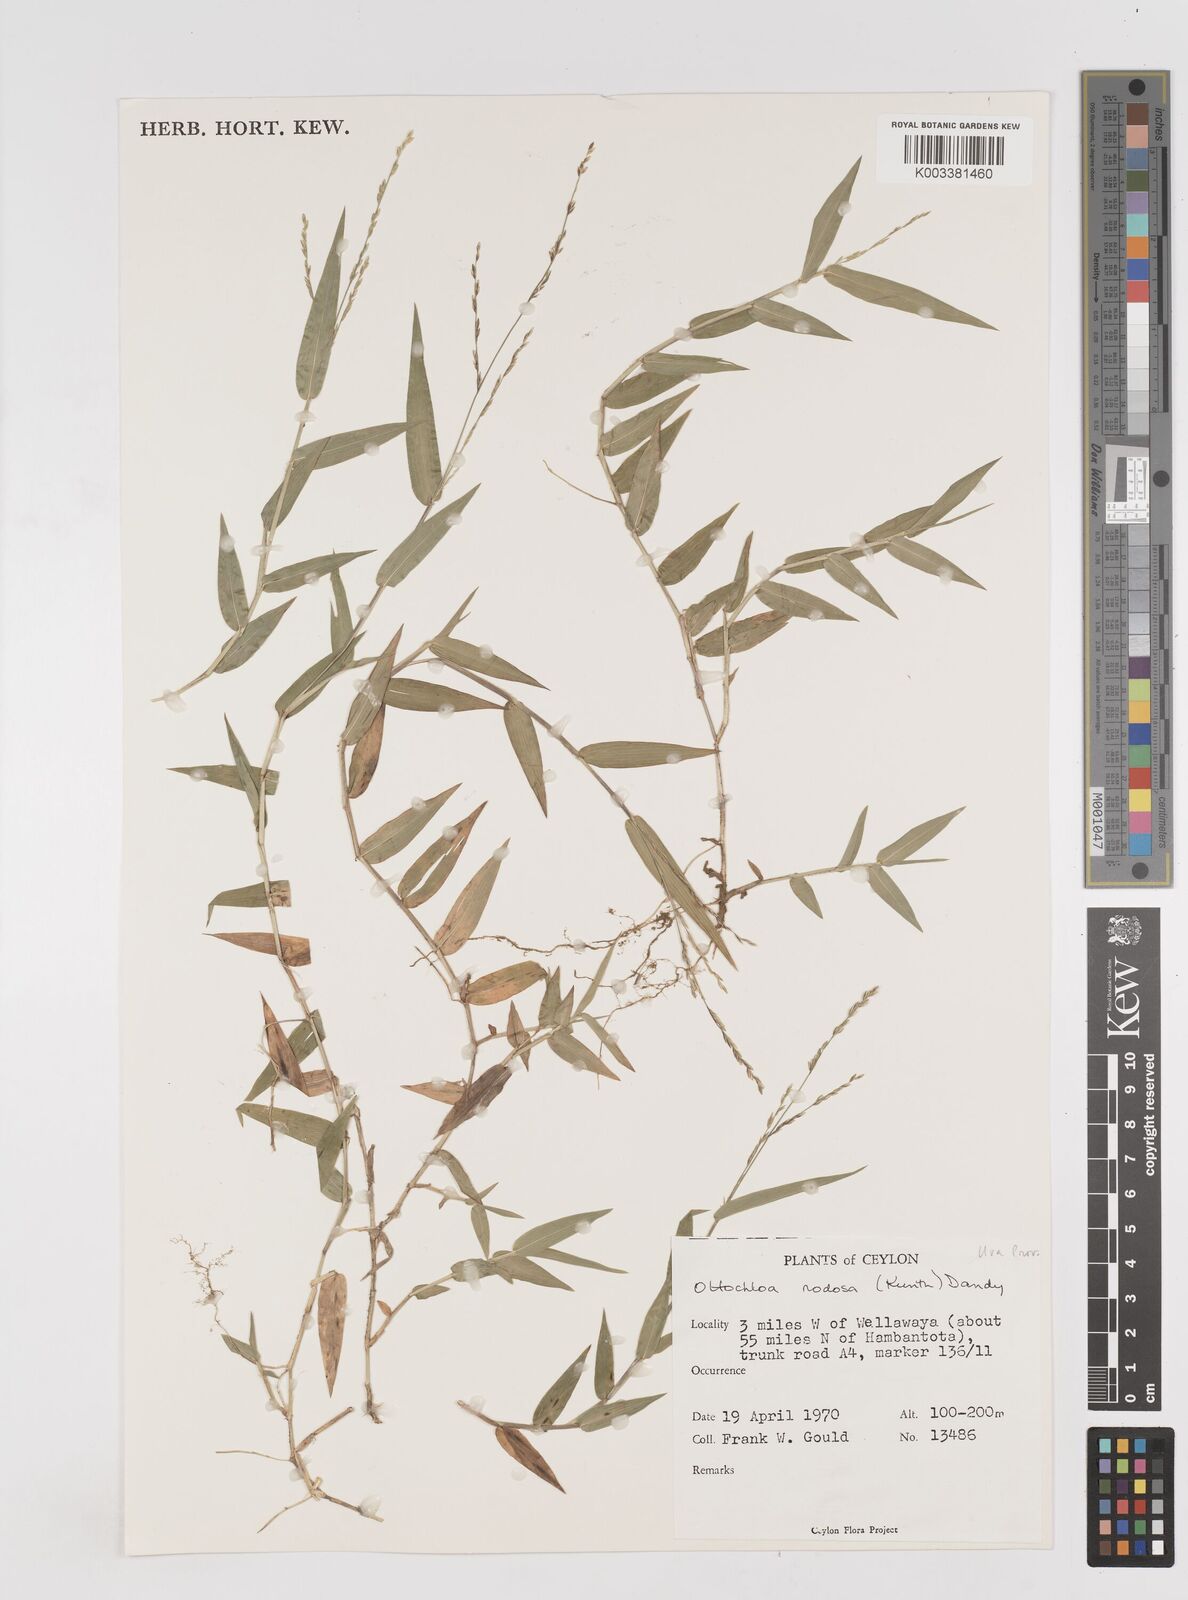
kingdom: Plantae
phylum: Tracheophyta
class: Liliopsida
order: Poales
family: Poaceae
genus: Ottochloa
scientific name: Ottochloa nodosa
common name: Slender-panic grass
